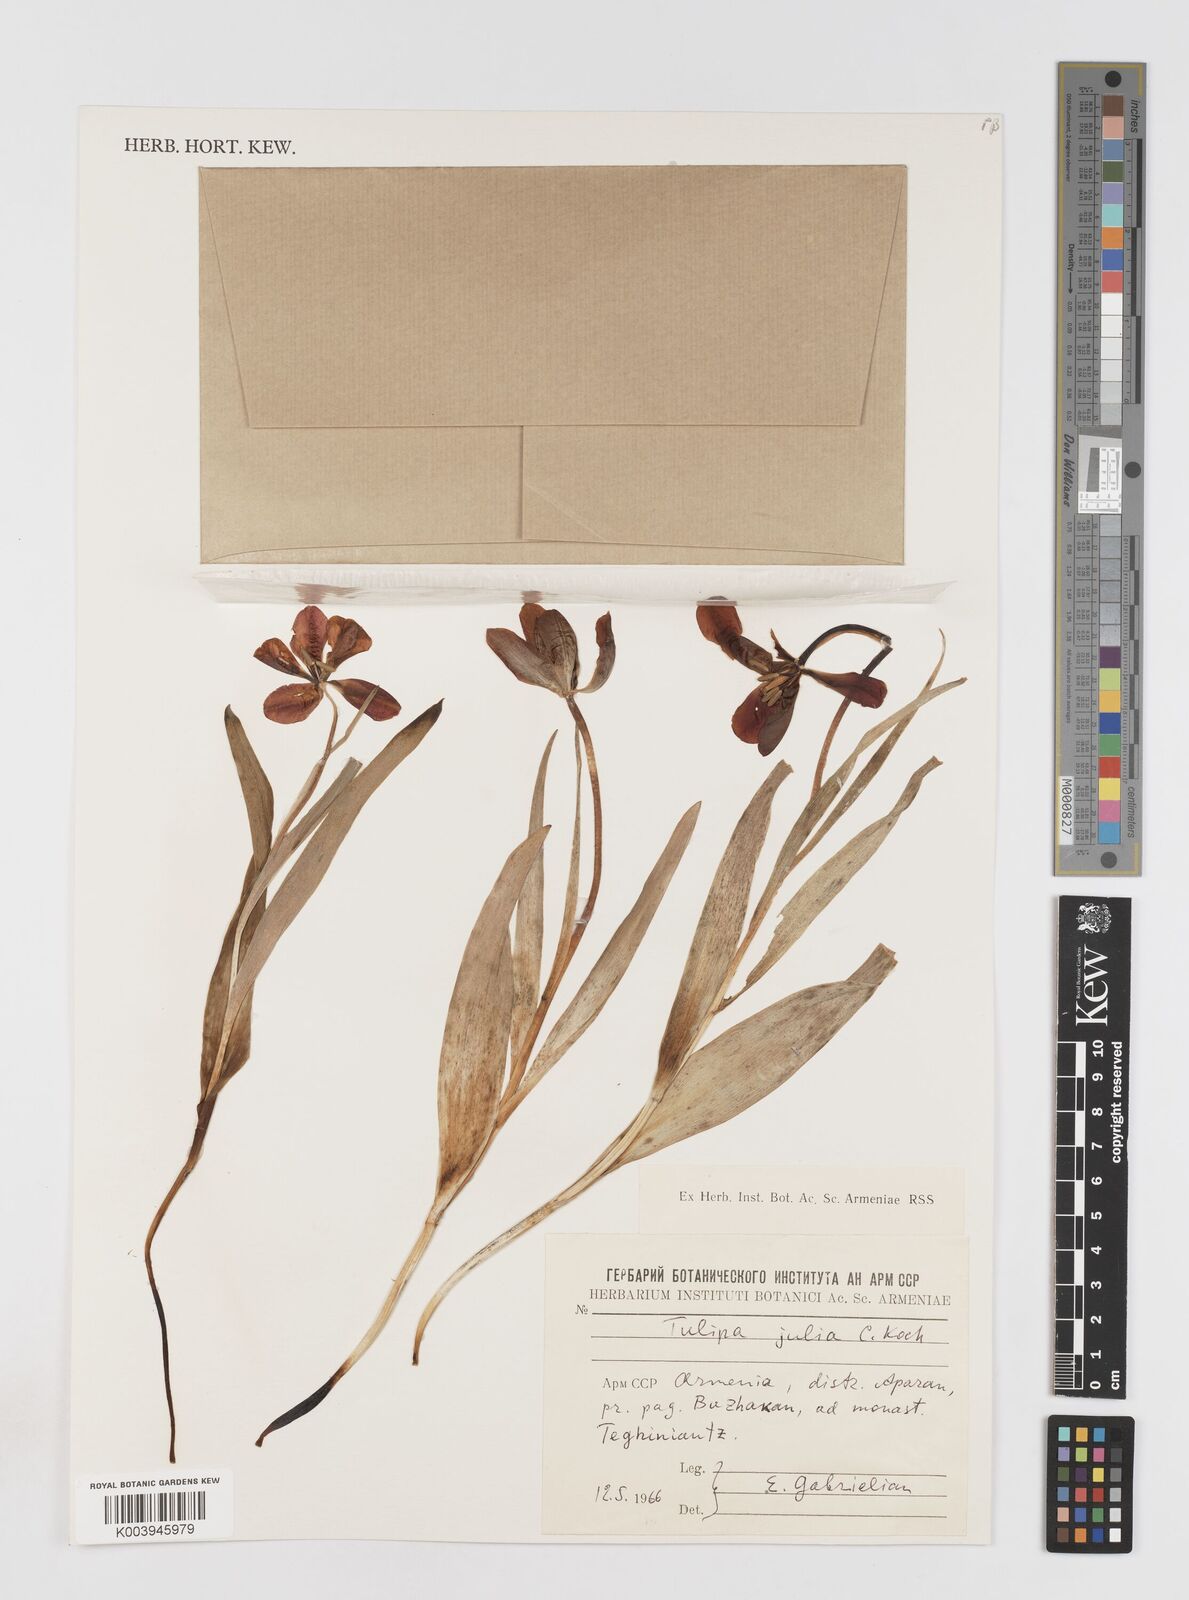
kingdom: Plantae
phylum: Tracheophyta
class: Liliopsida
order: Liliales
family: Liliaceae
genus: Tulipa
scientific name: Tulipa julia
